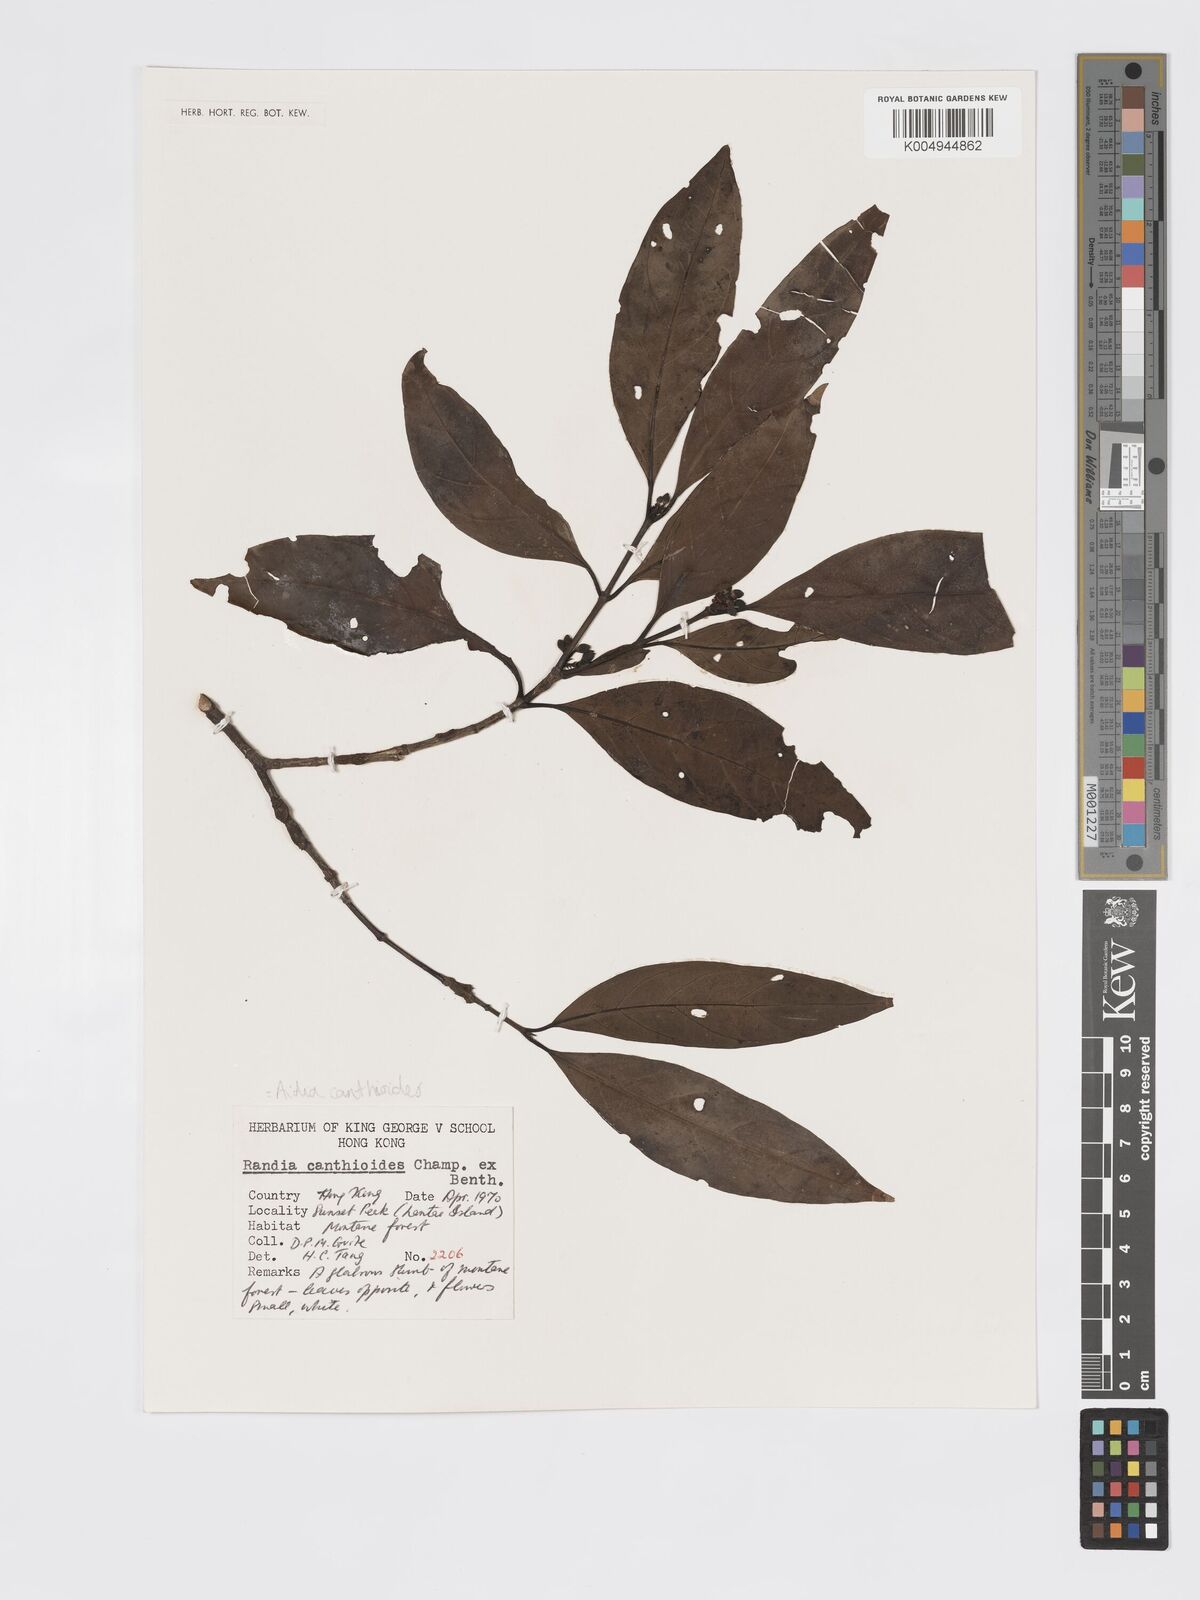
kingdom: Plantae
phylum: Tracheophyta
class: Magnoliopsida
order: Gentianales
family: Rubiaceae
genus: Aidia
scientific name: Aidia canthioides
